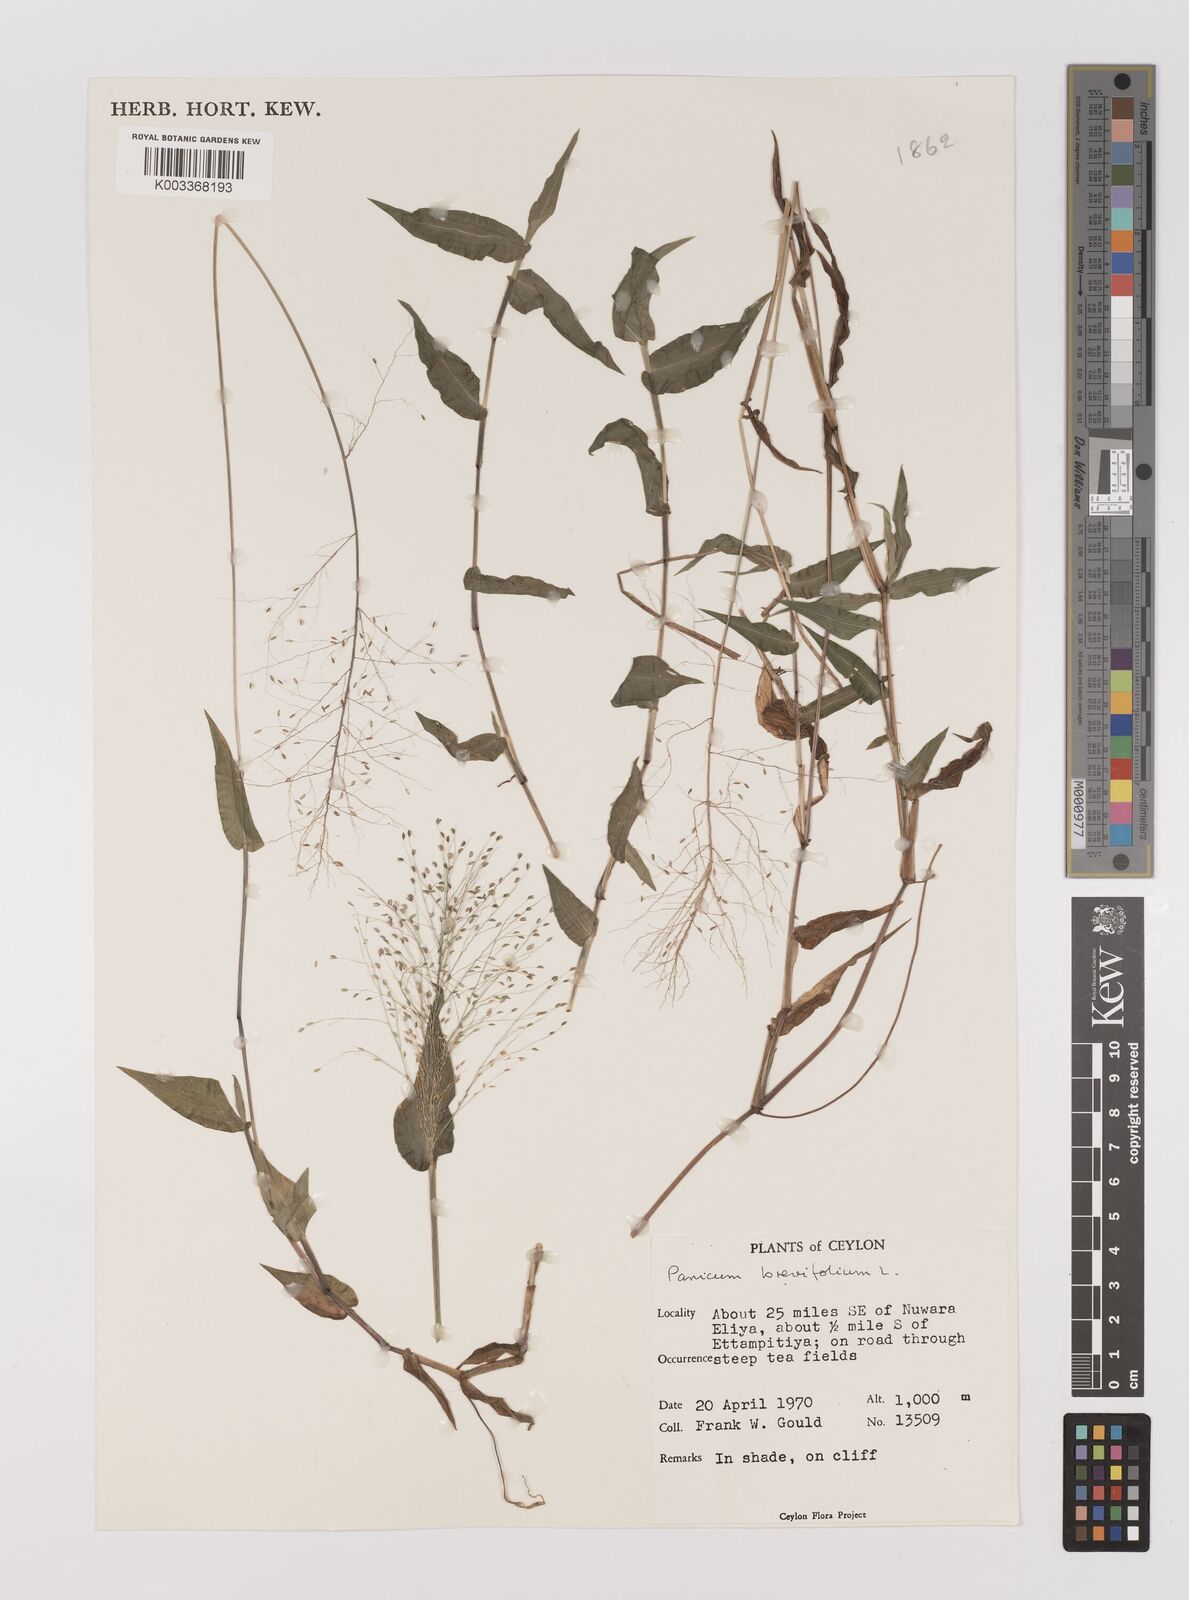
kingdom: Plantae
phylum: Tracheophyta
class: Liliopsida
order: Poales
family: Poaceae
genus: Panicum
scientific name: Panicum brevifolium
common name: Shortleaf panic grass
